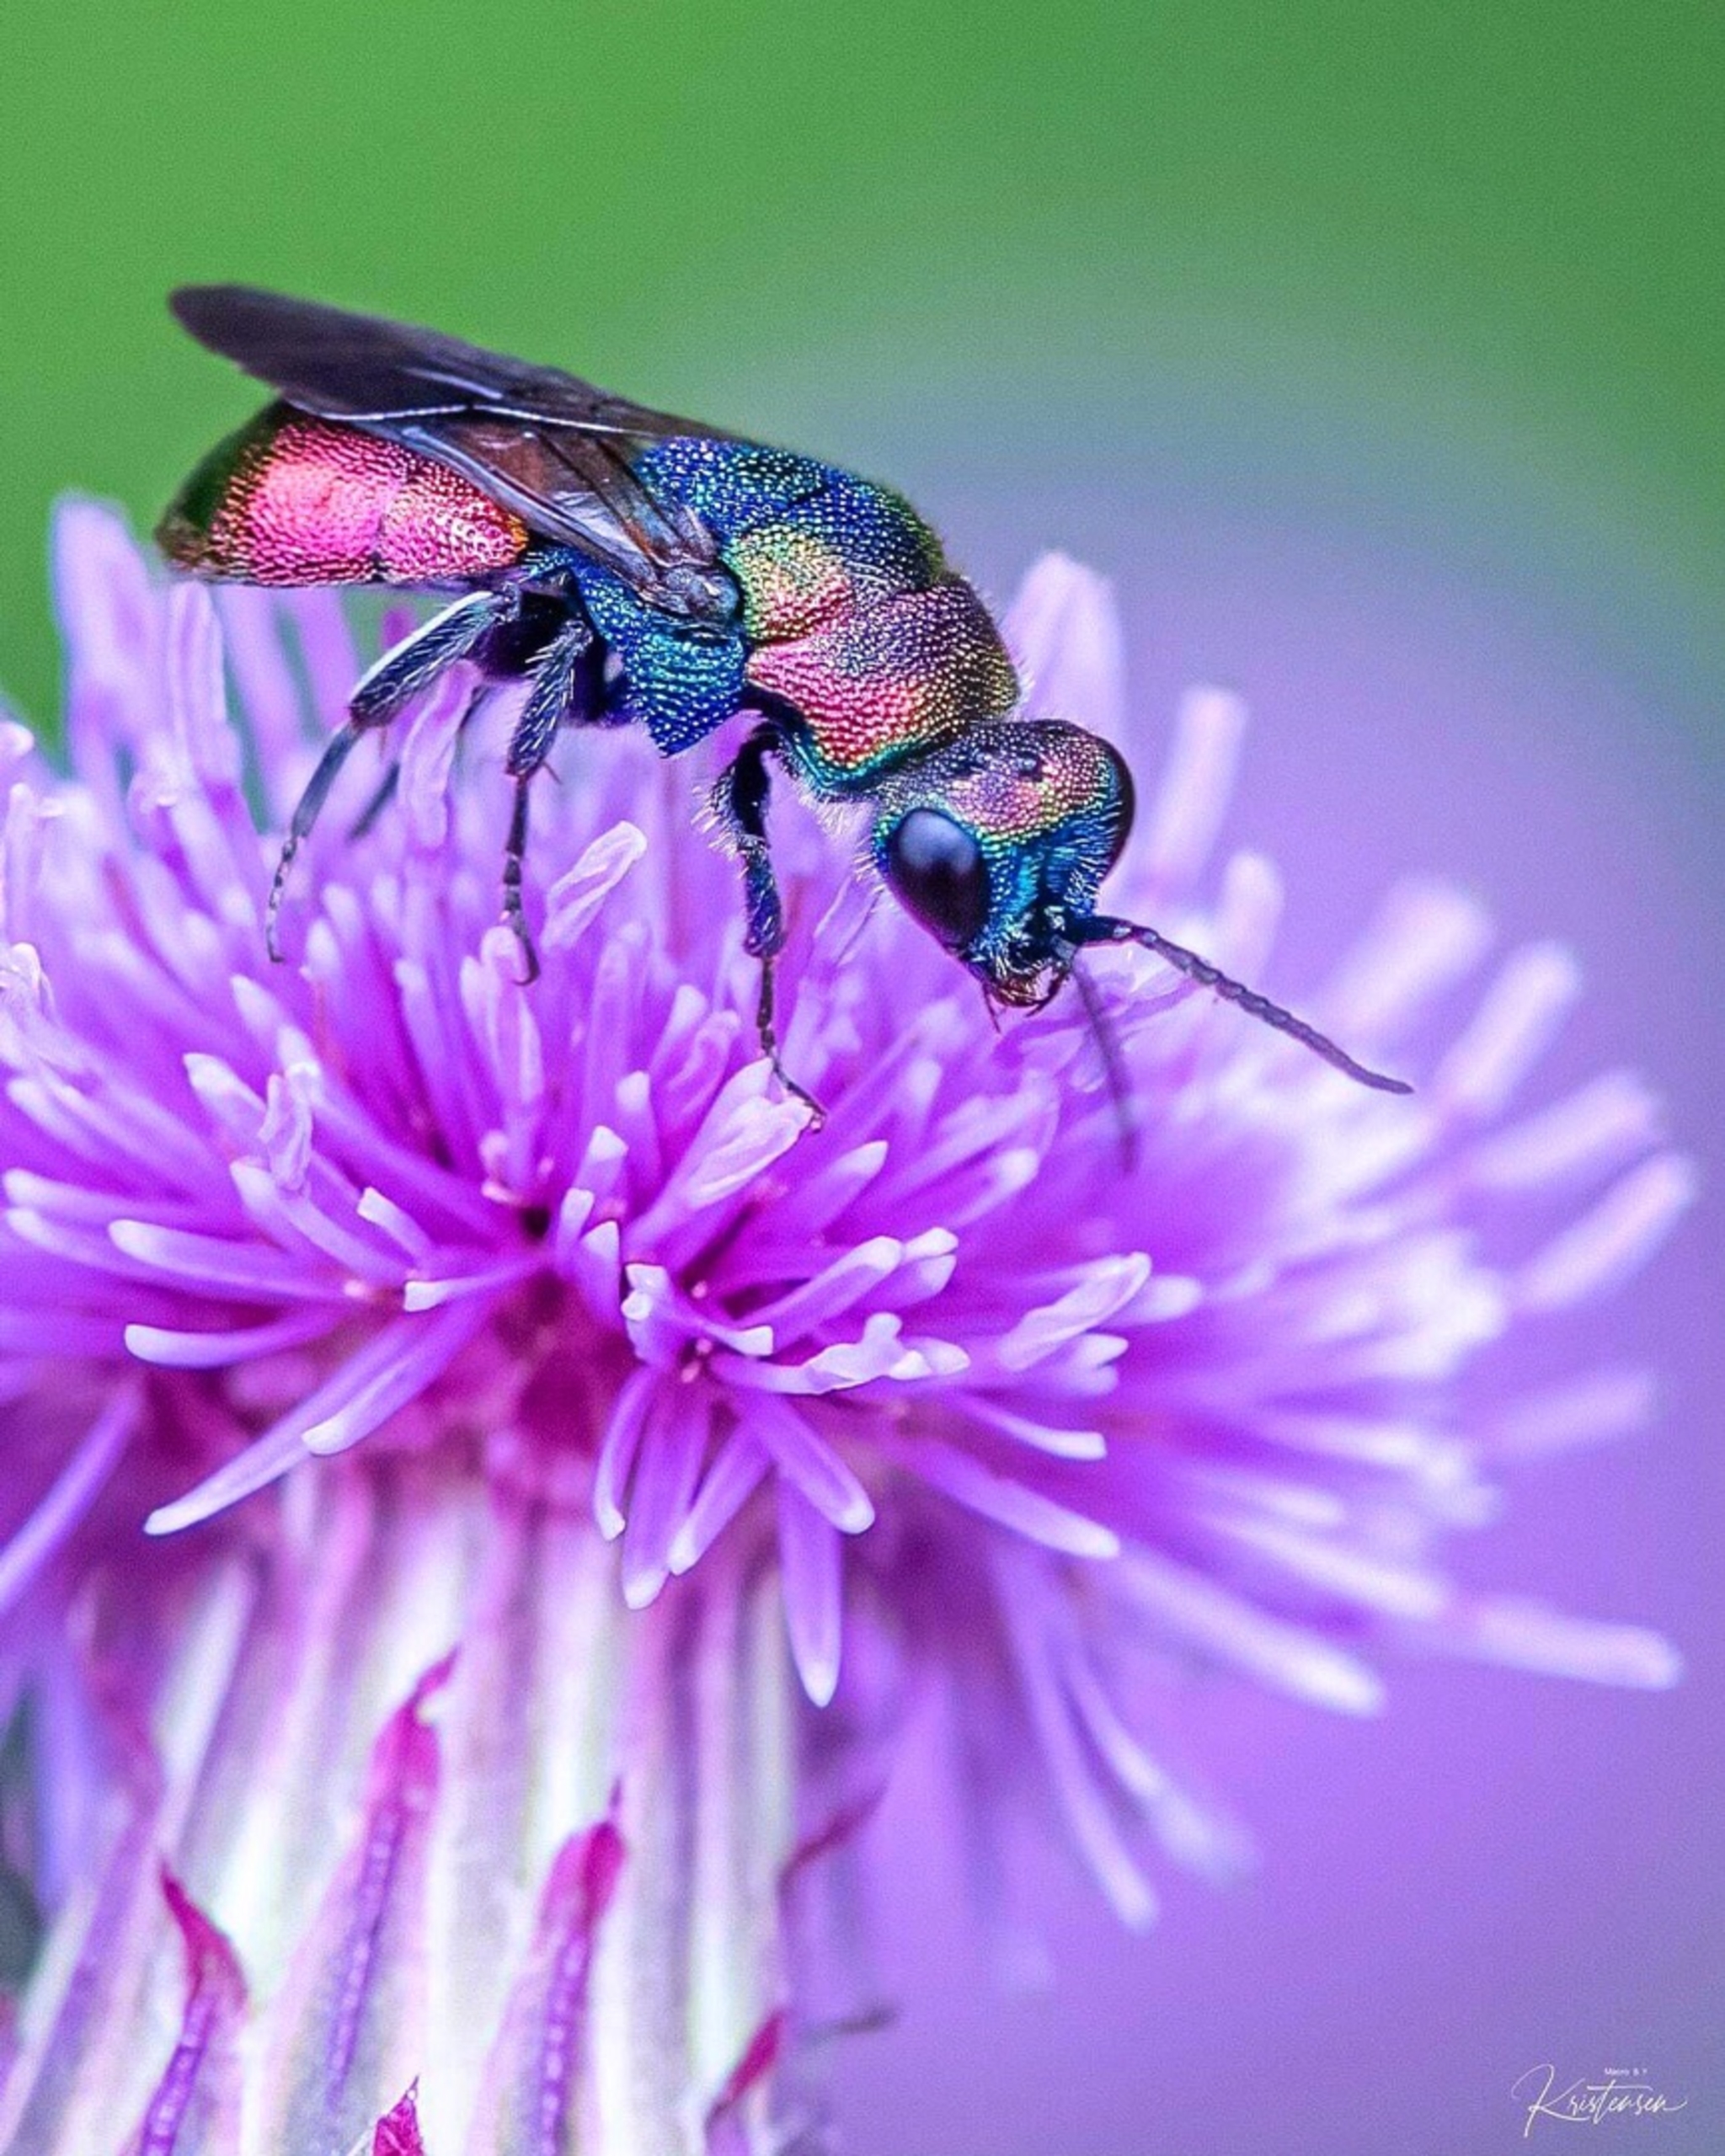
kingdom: Animalia
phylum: Arthropoda
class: Insecta
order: Hymenoptera
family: Chrysididae
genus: Hedychrum
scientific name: Hedychrum rutilans
